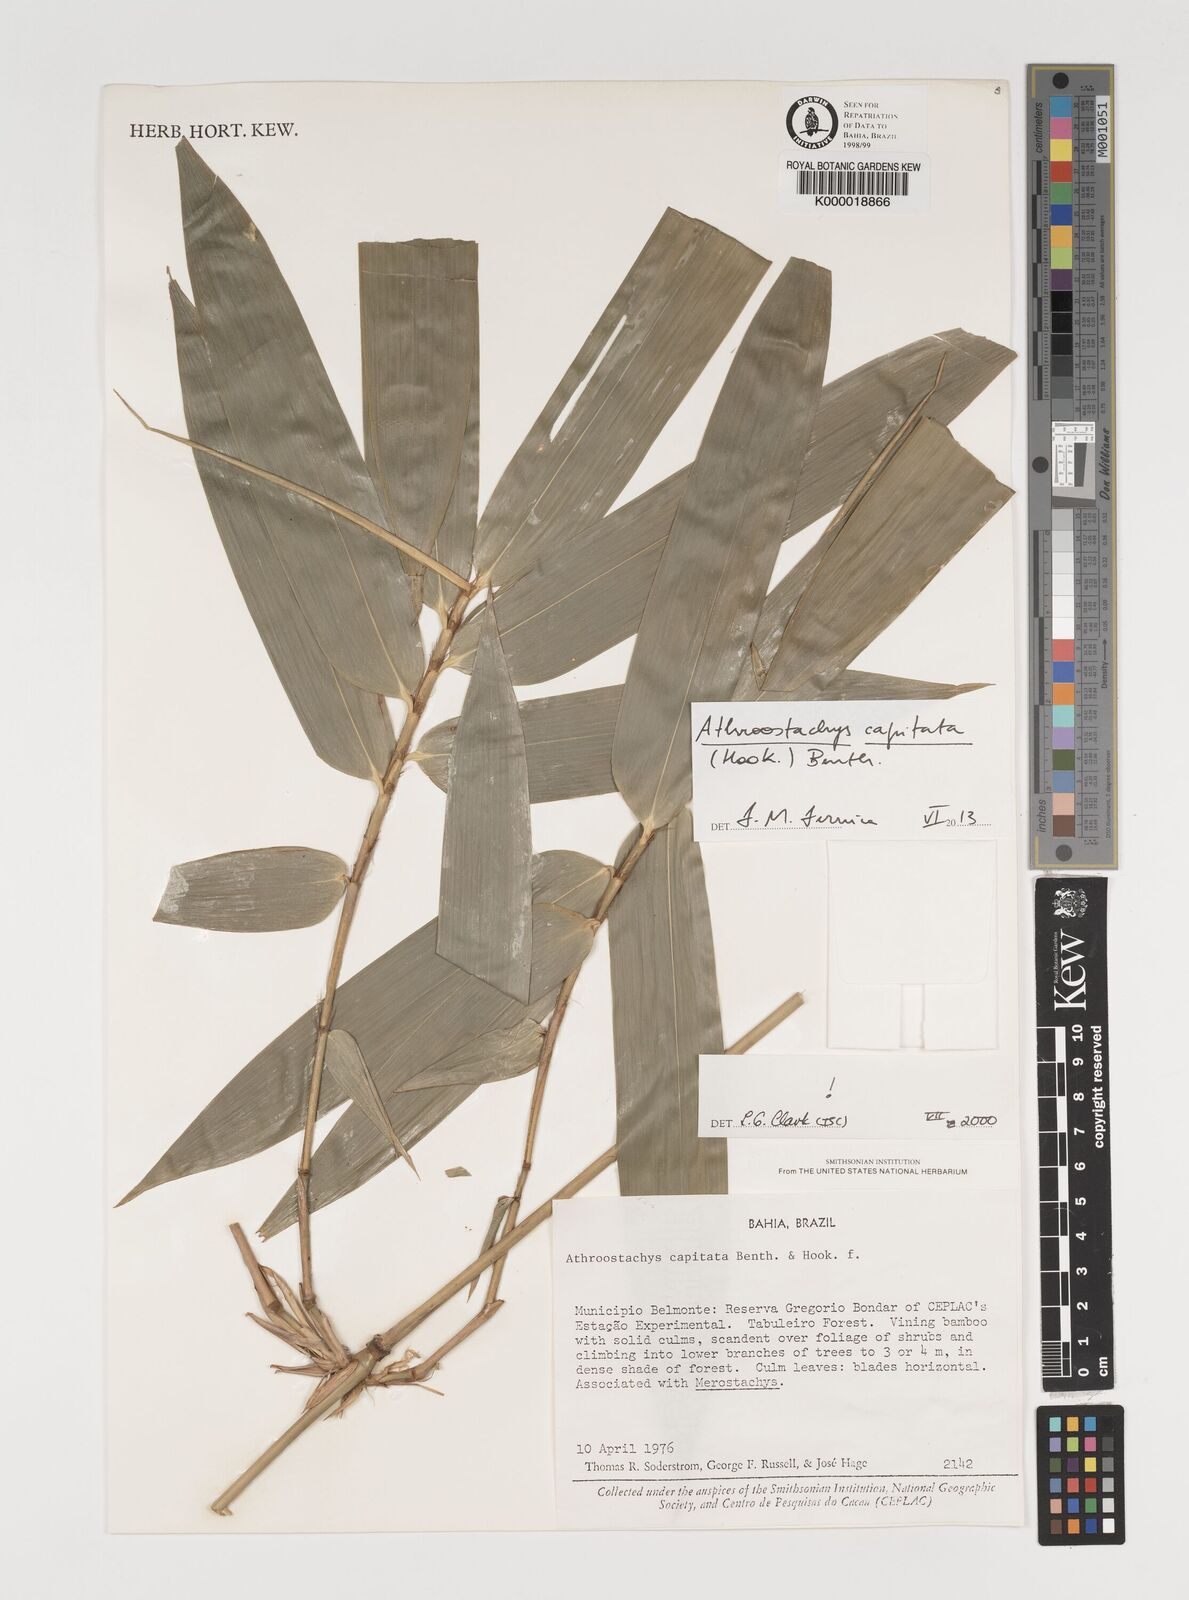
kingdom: Plantae
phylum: Tracheophyta
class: Liliopsida
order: Poales
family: Poaceae
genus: Athroostachys
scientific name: Athroostachys capitata
